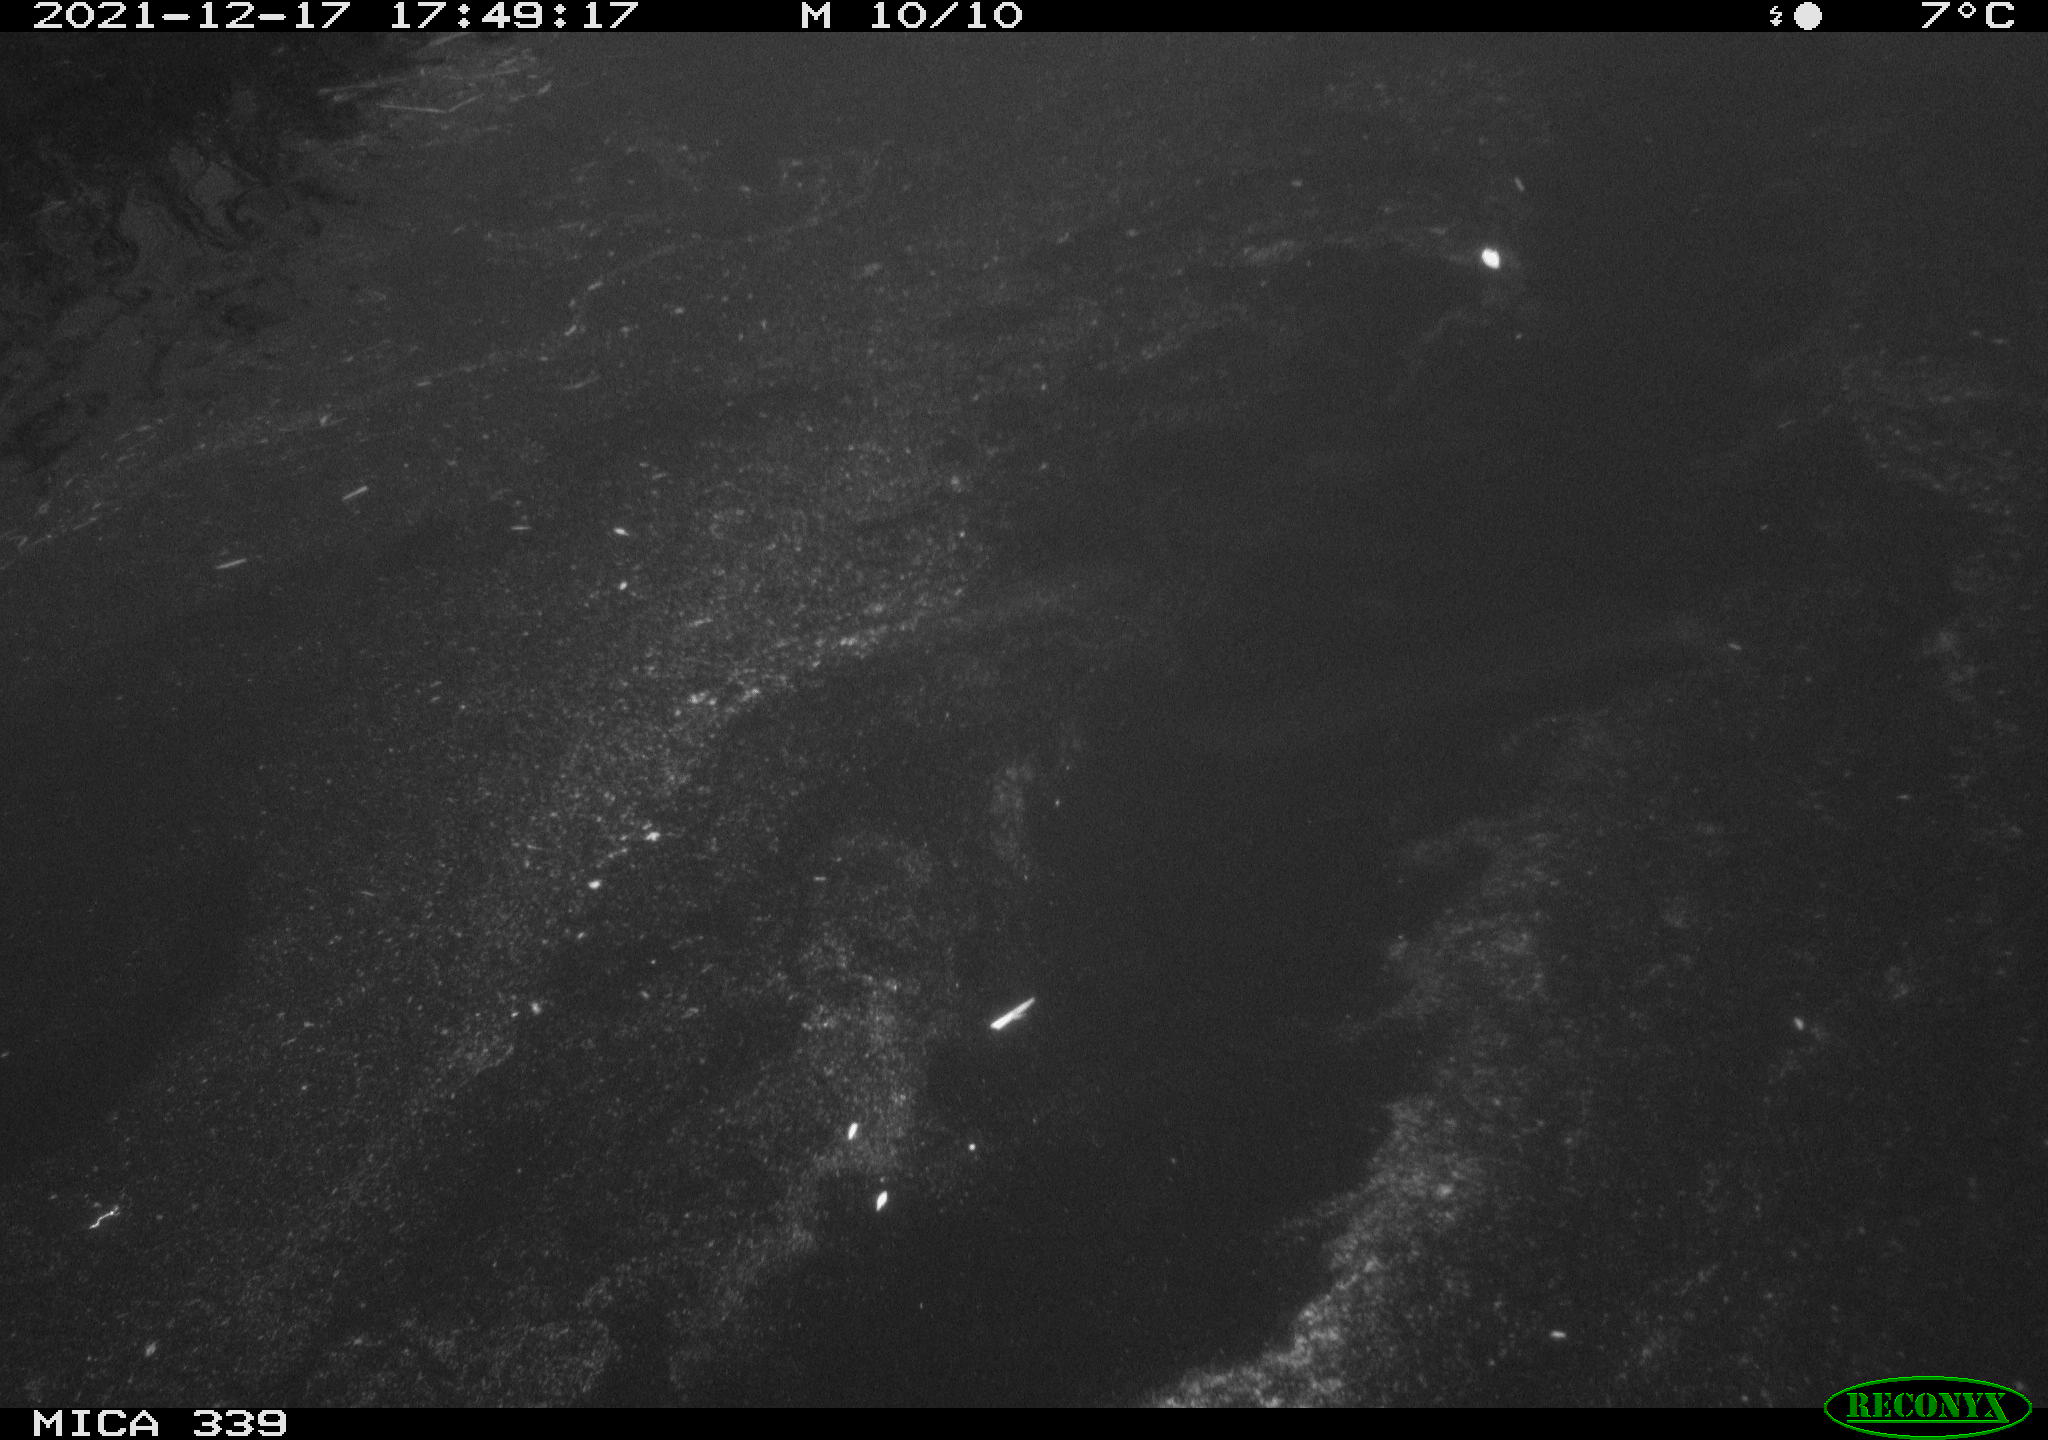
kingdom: Animalia
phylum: Chordata
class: Aves
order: Gruiformes
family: Rallidae
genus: Gallinula
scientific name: Gallinula chloropus
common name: Common moorhen
